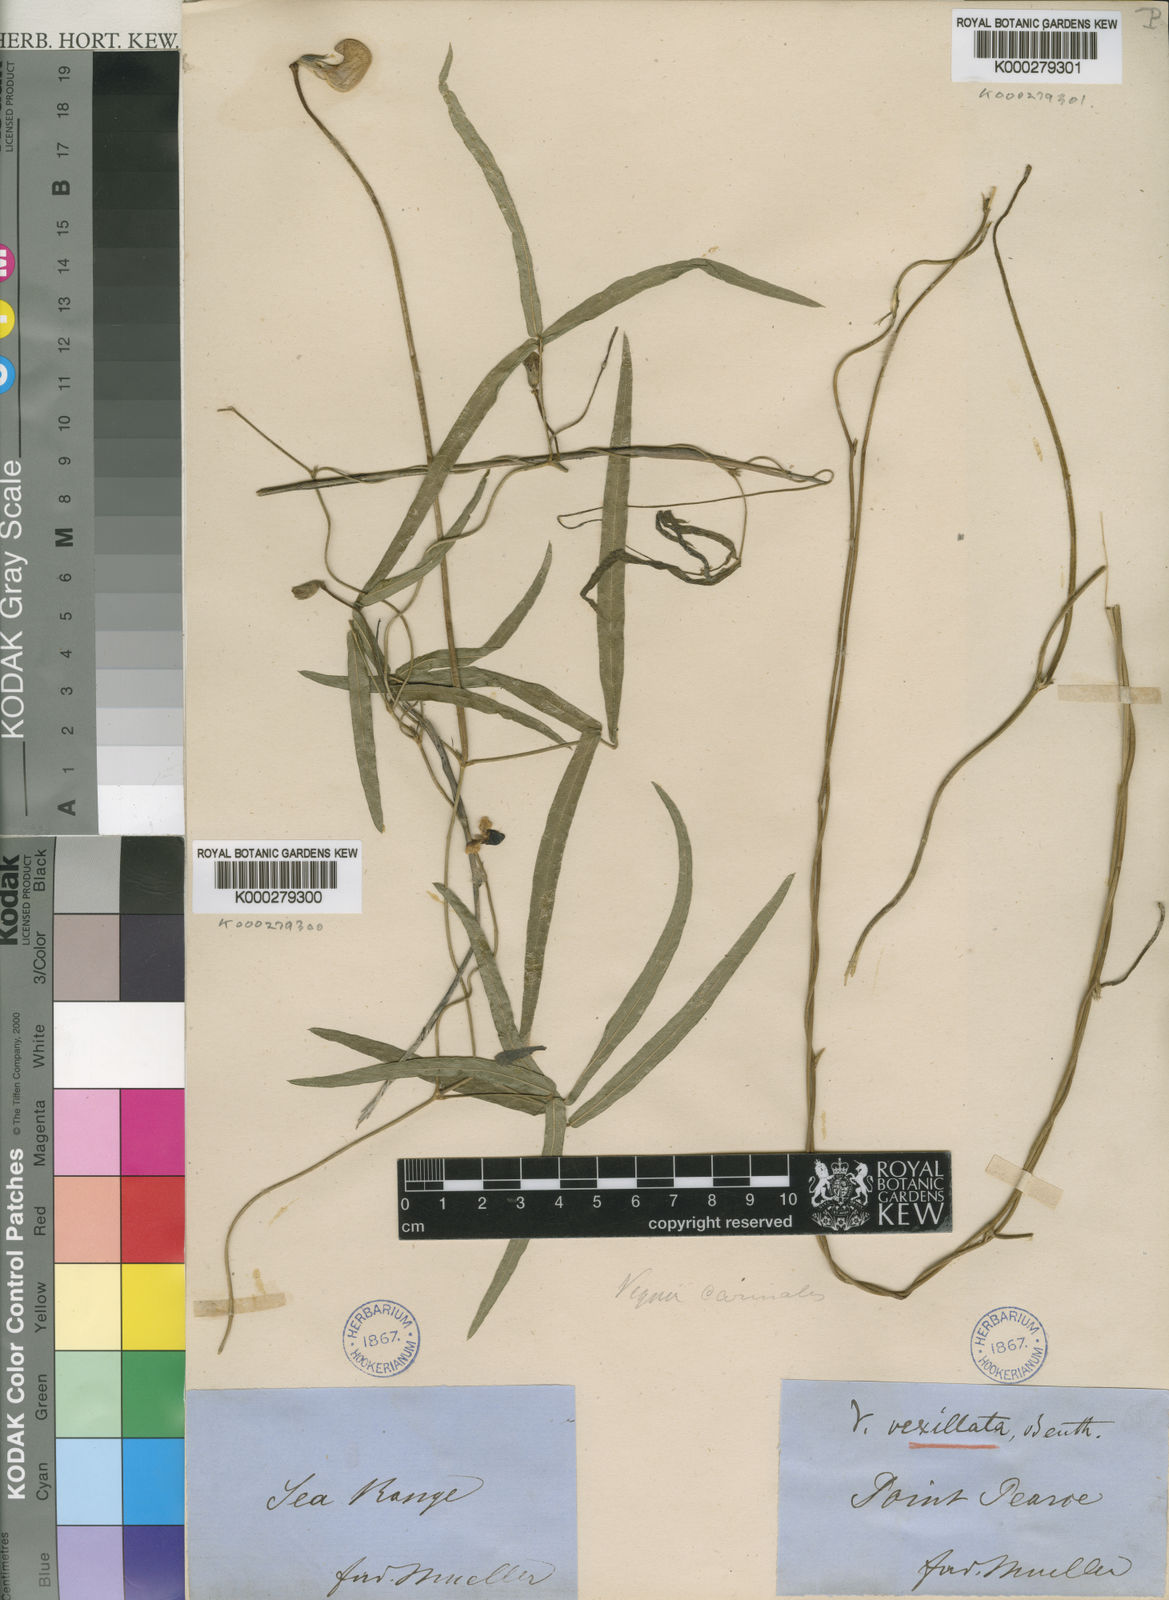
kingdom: Plantae
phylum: Tracheophyta
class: Magnoliopsida
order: Fabales
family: Fabaceae
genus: Vigna
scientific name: Vigna vexillata
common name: Zombi pea
